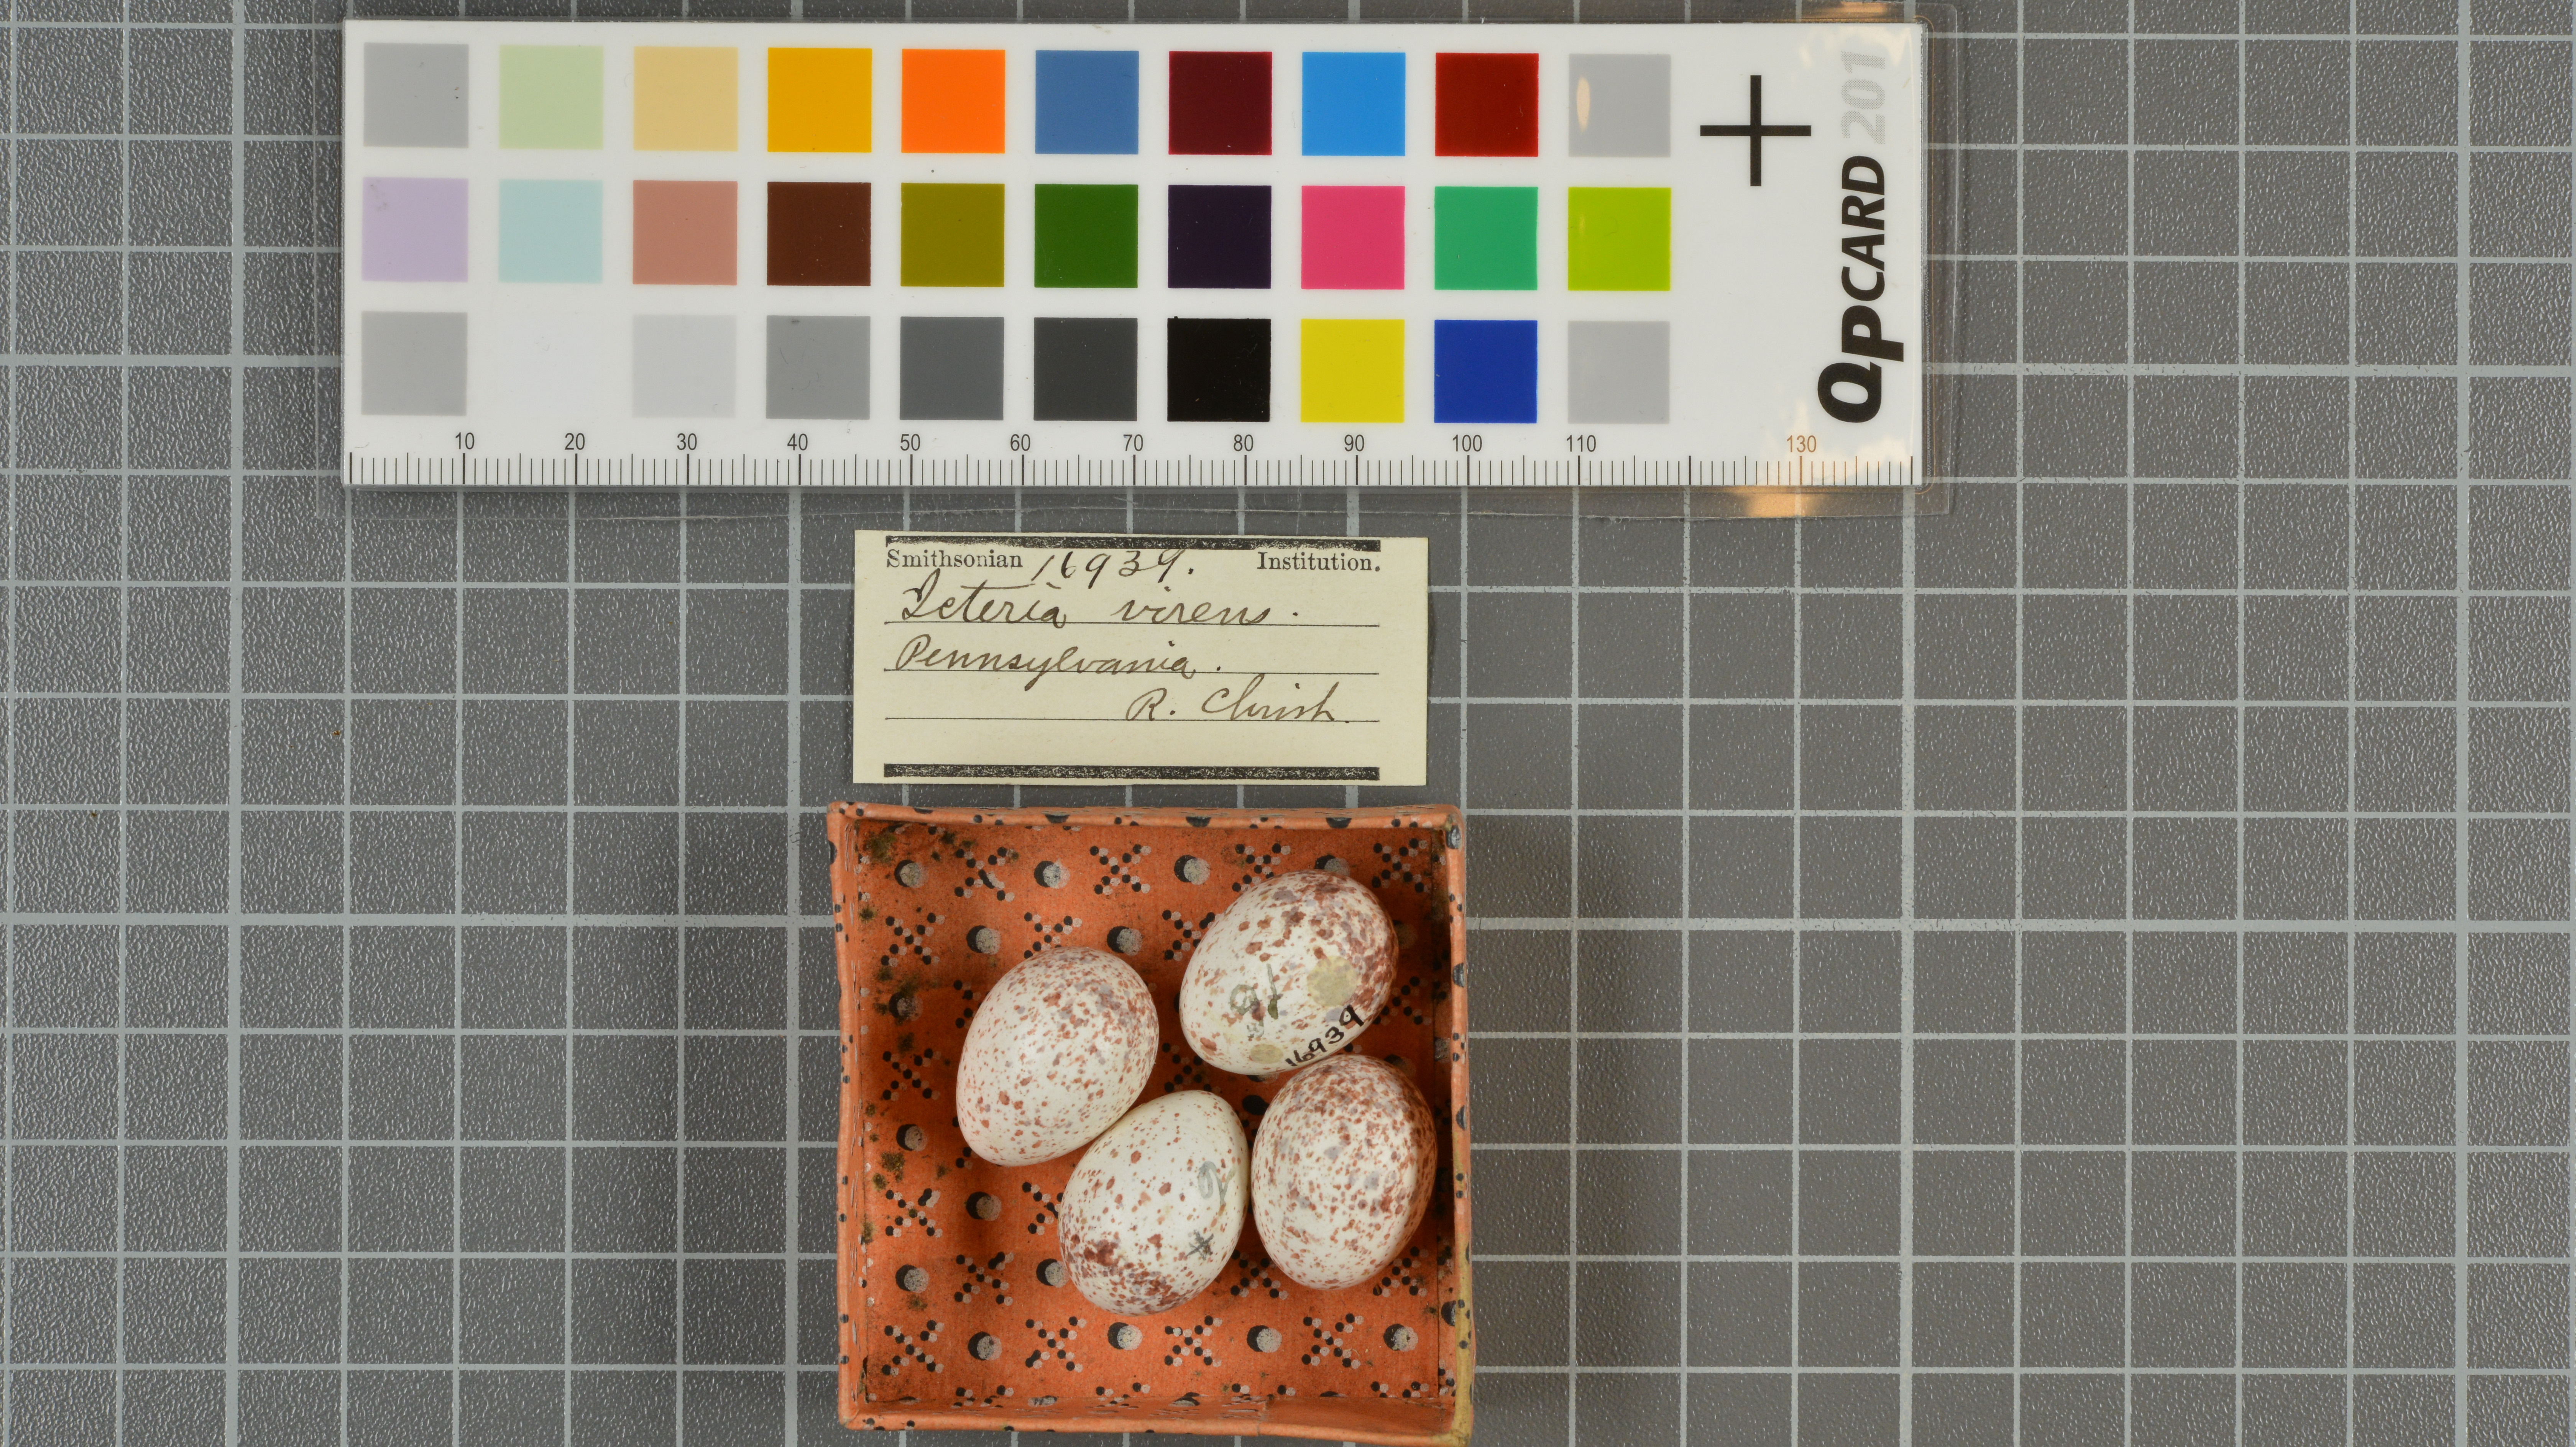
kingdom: Animalia
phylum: Chordata
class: Aves
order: Passeriformes
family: Parulidae
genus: Icteria
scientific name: Icteria virens
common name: Yellow-breasted chat
